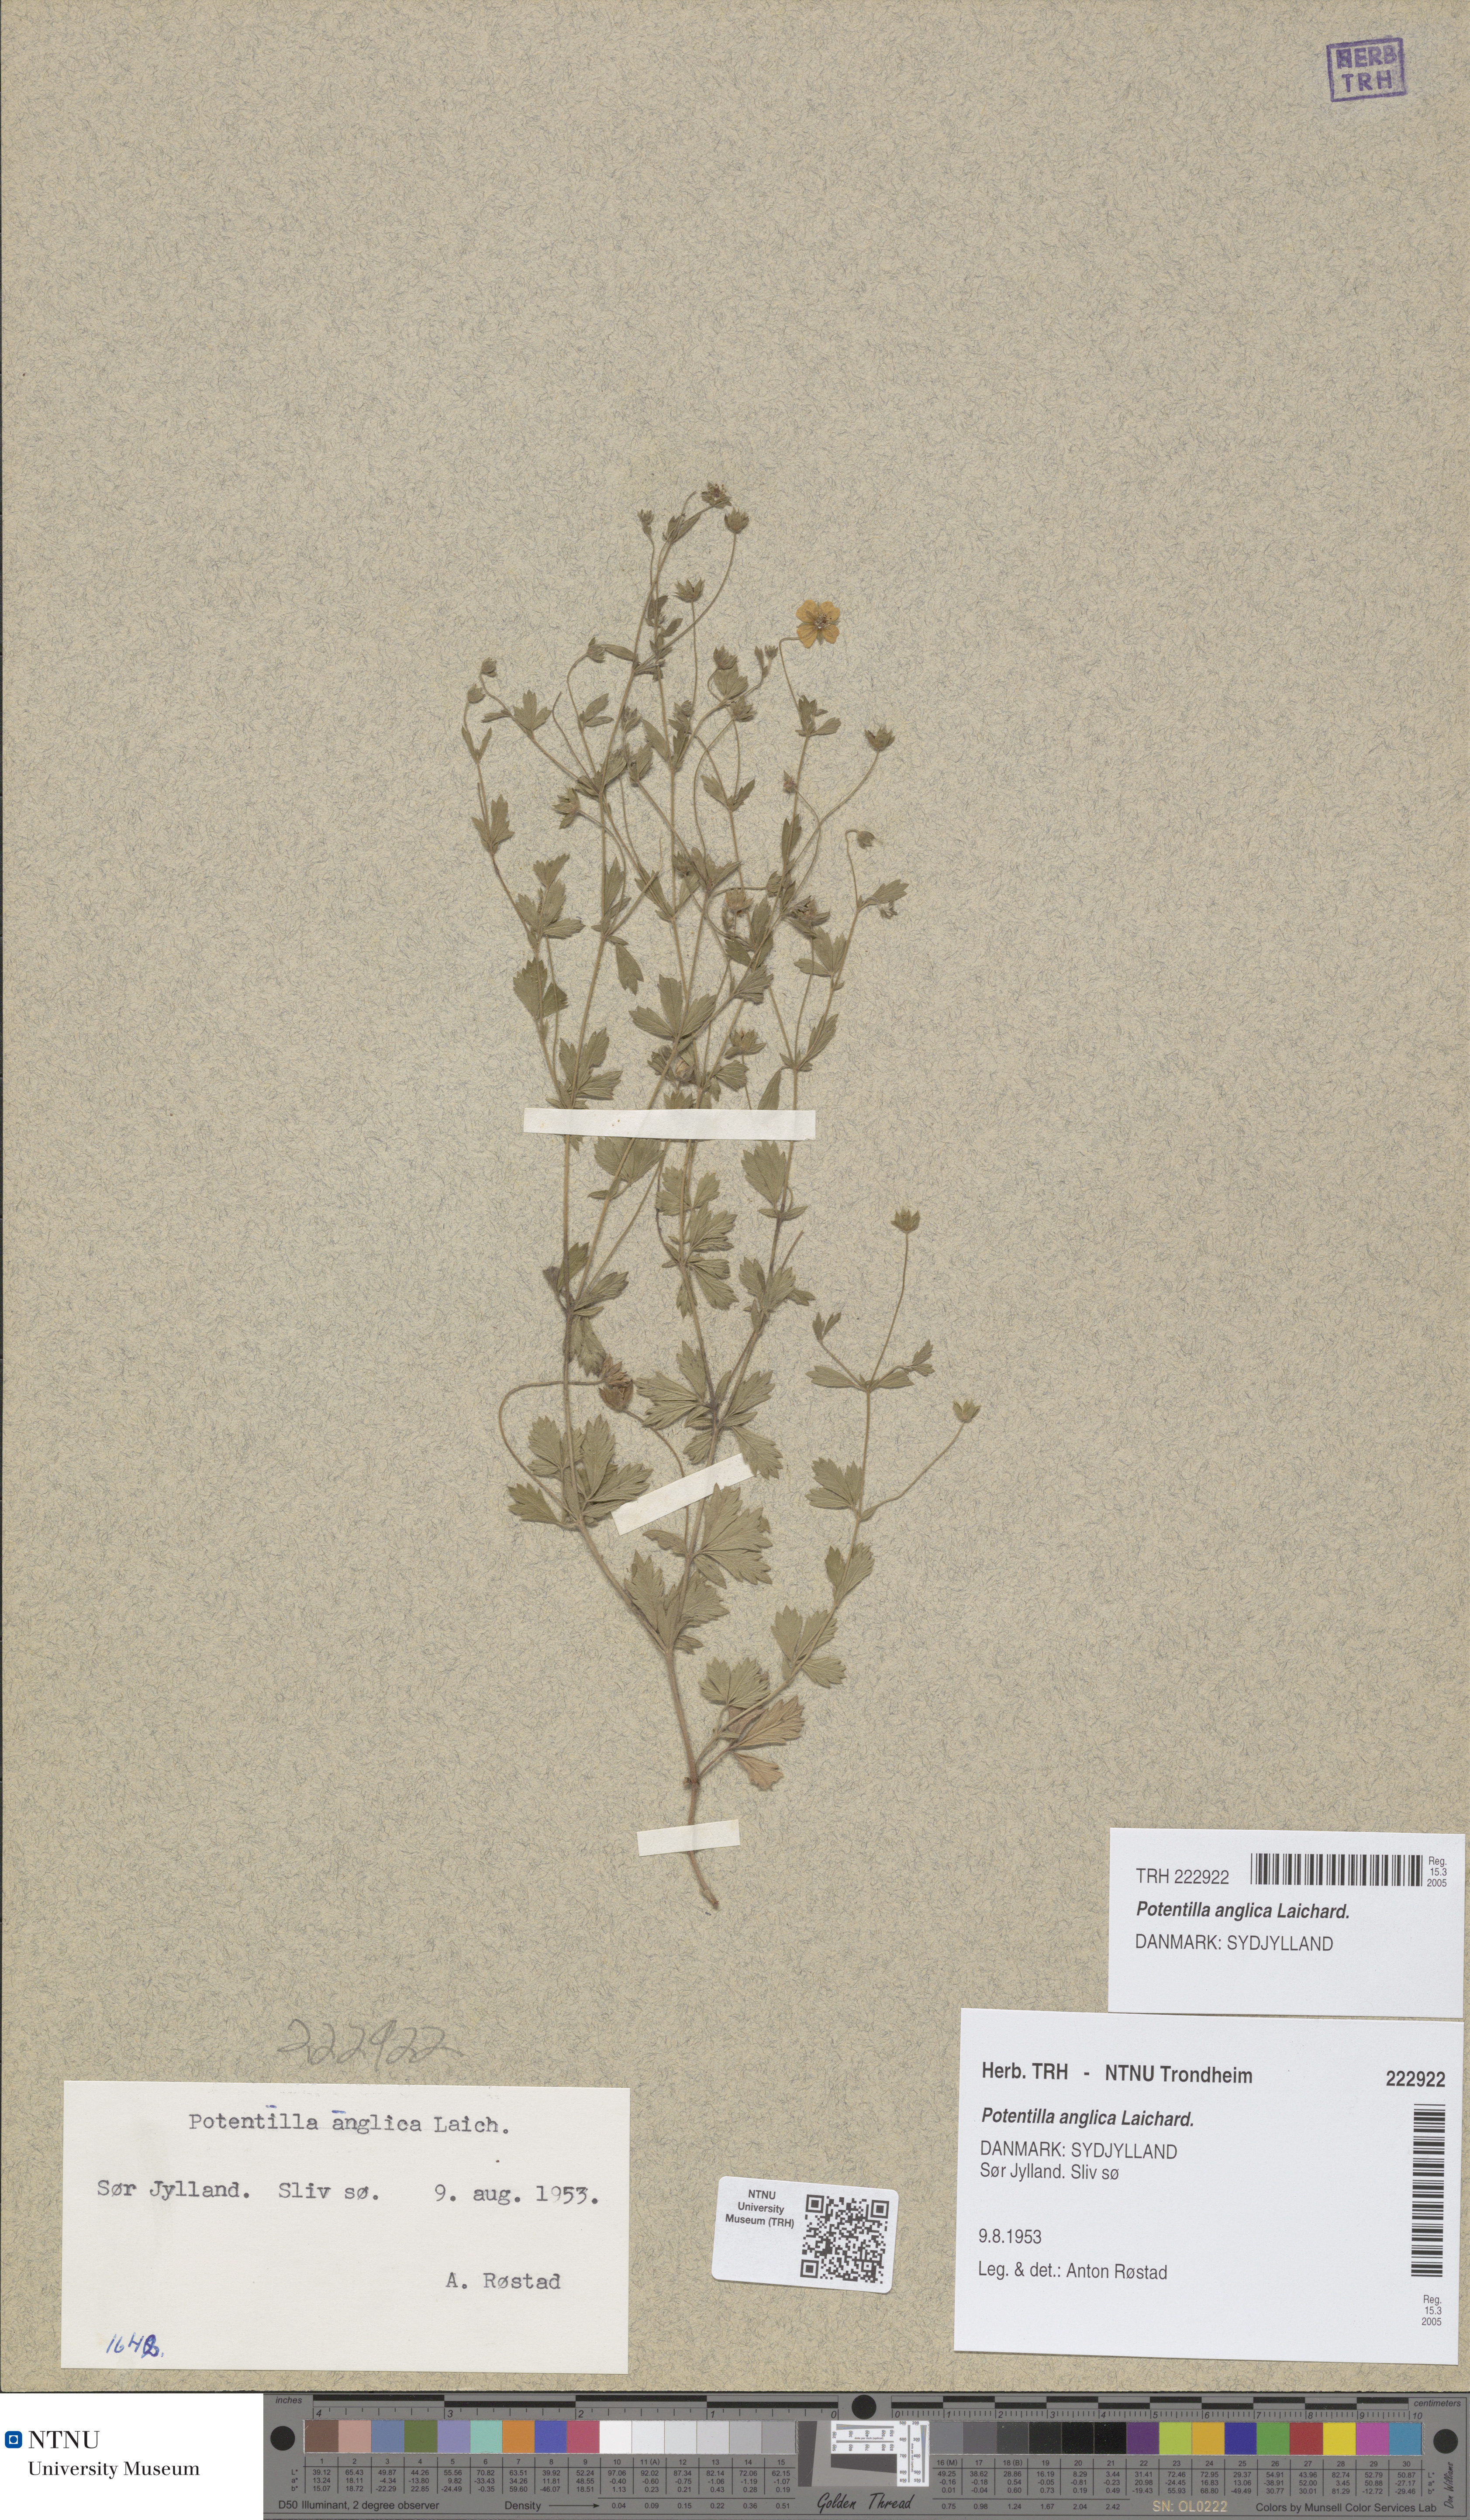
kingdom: Plantae
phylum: Tracheophyta
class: Magnoliopsida
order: Rosales
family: Rosaceae
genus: Potentilla
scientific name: Potentilla anglica
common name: Trailing tormentil
